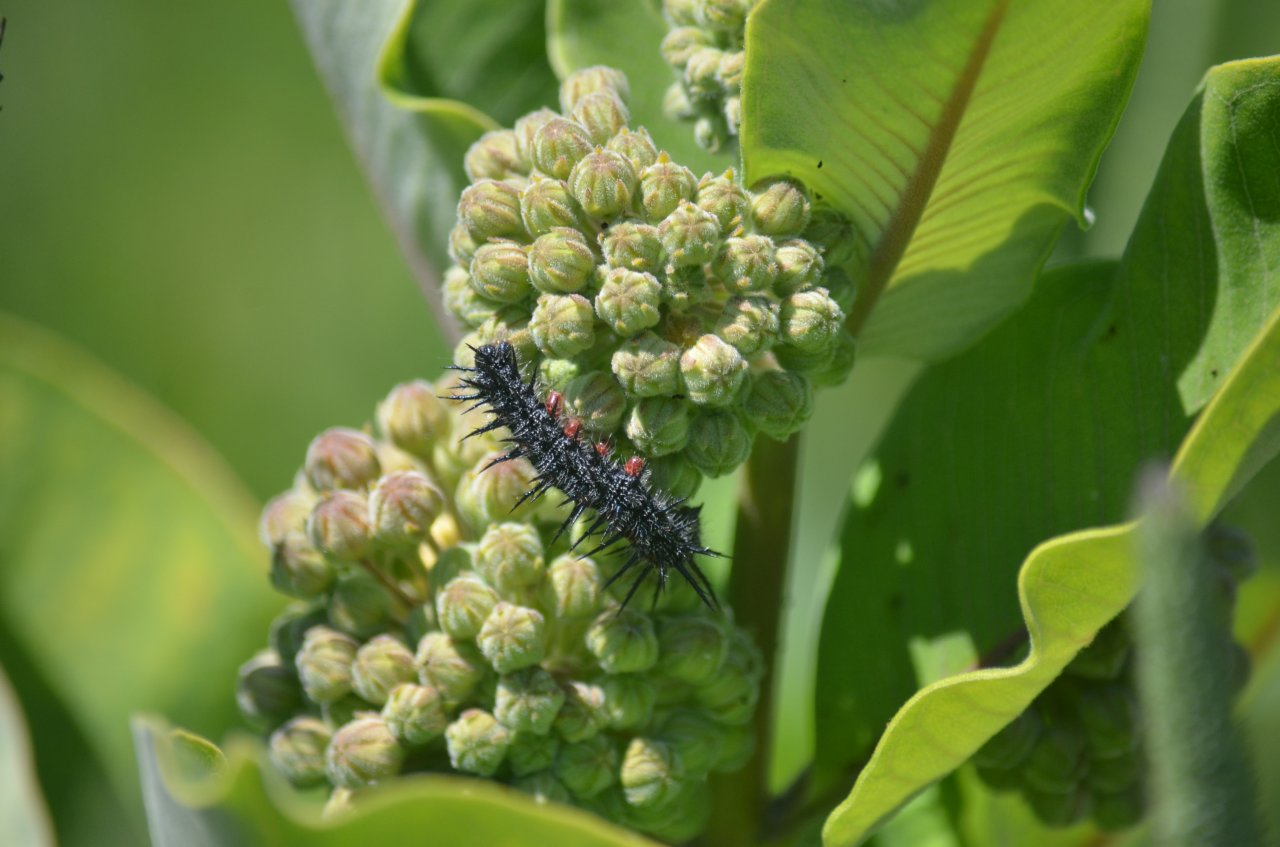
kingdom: Animalia
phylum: Arthropoda
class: Insecta
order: Lepidoptera
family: Nymphalidae
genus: Nymphalis
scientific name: Nymphalis antiopa
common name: Mourning Cloak
